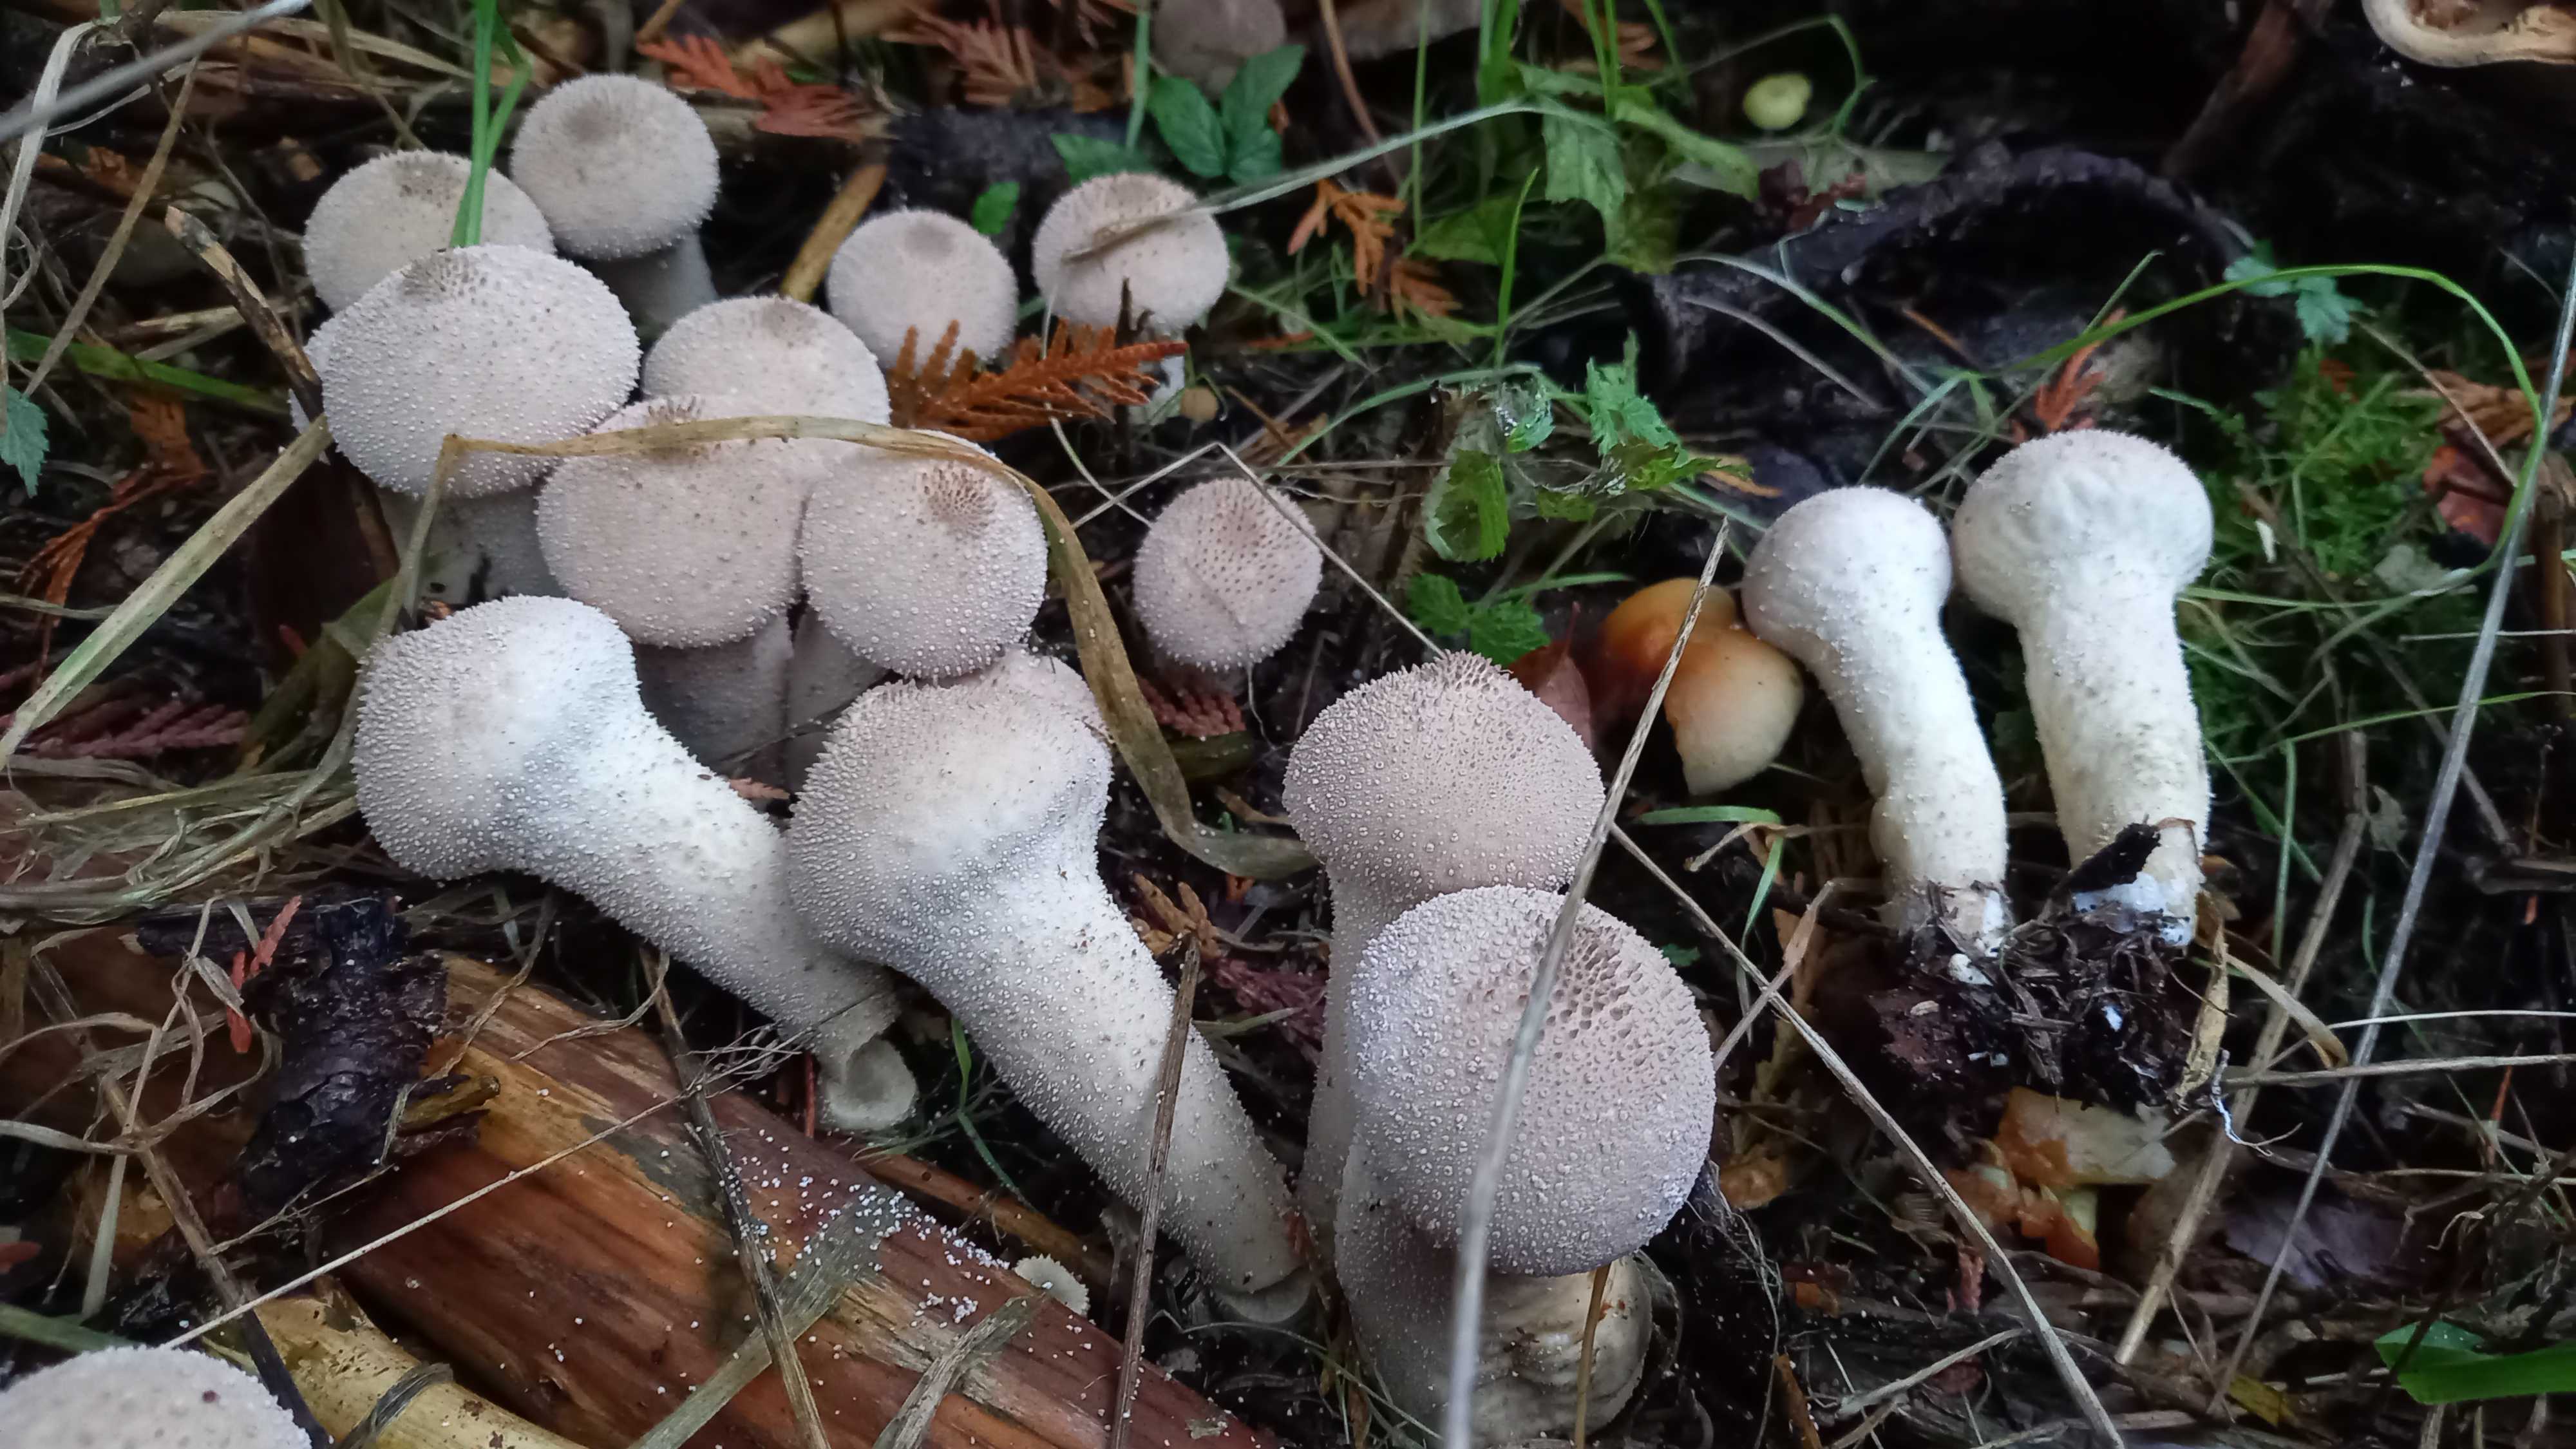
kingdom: Fungi
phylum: Basidiomycota
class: Agaricomycetes
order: Agaricales
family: Lycoperdaceae
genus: Lycoperdon
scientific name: Lycoperdon perlatum
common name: krystal-støvbold
